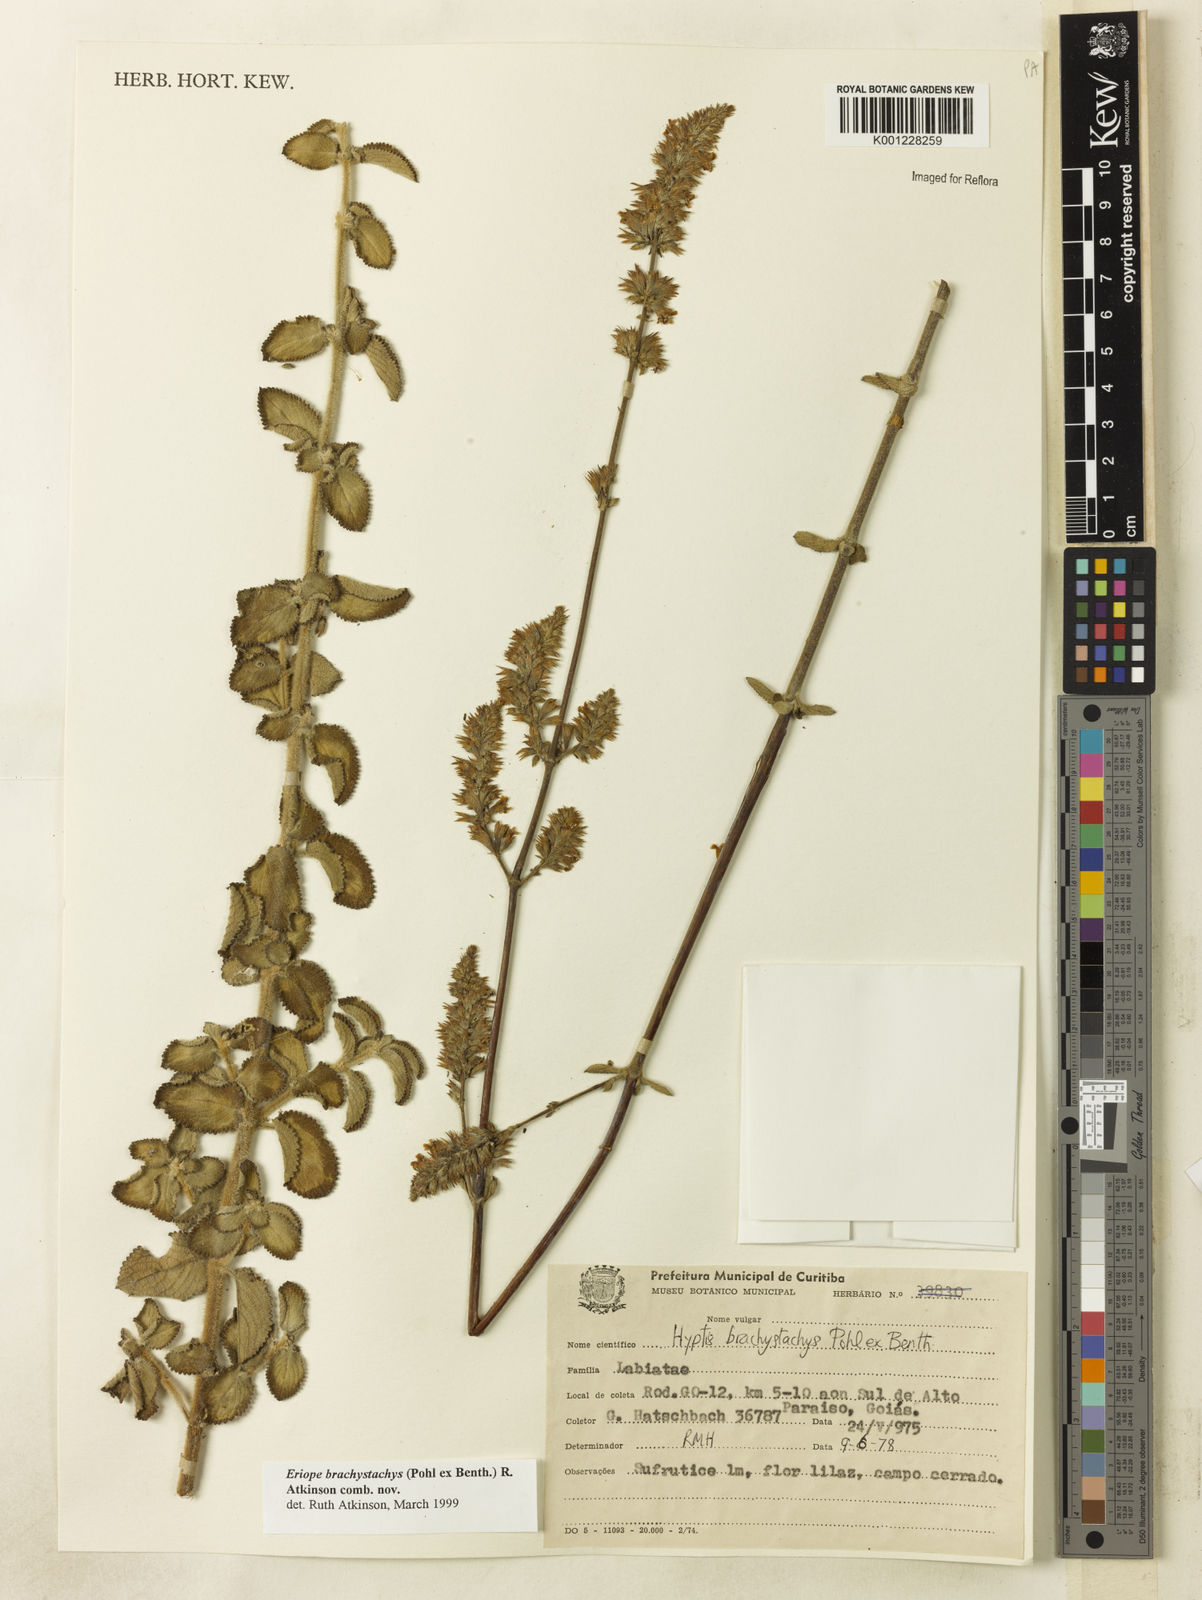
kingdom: Plantae
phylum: Tracheophyta
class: Magnoliopsida
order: Lamiales
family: Lamiaceae
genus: Hypenia
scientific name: Hypenia brachystachys
